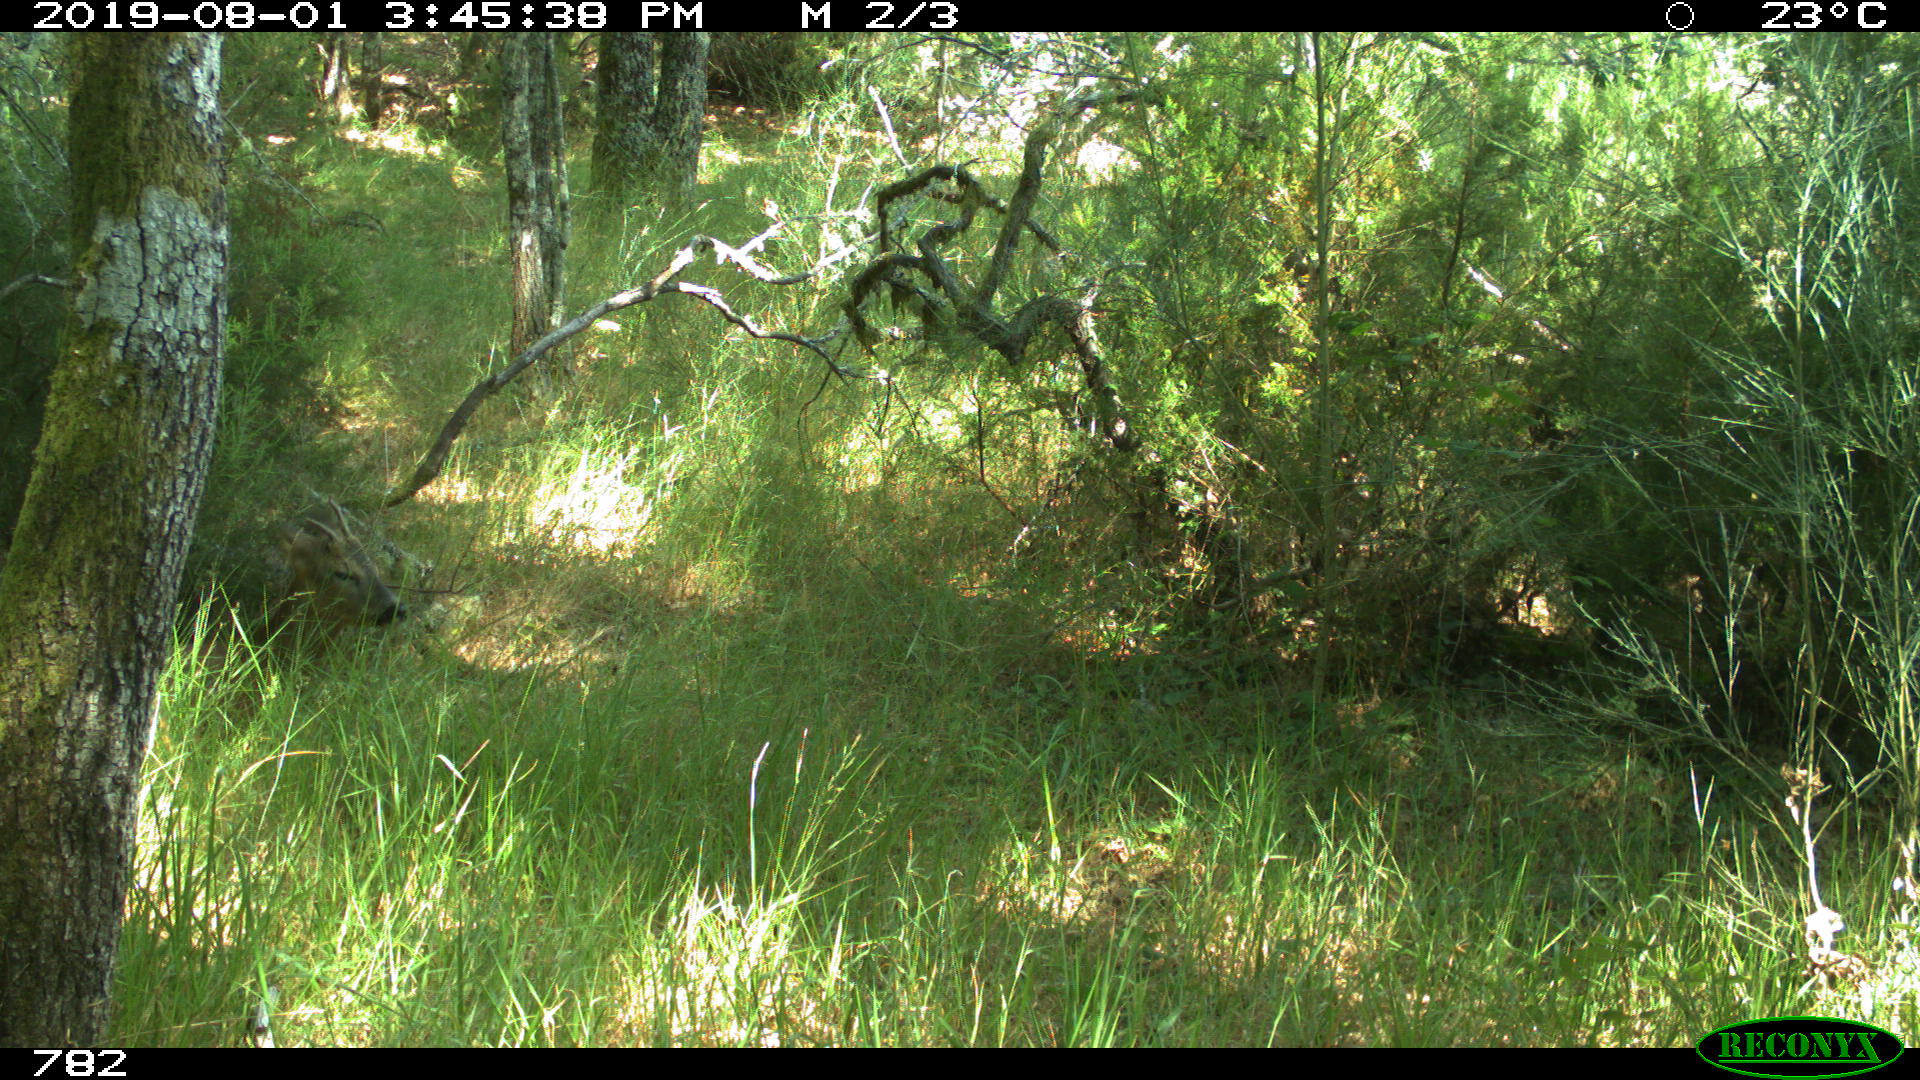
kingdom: Animalia
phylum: Chordata
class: Mammalia
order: Artiodactyla
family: Cervidae
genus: Capreolus
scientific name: Capreolus capreolus
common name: Western roe deer
